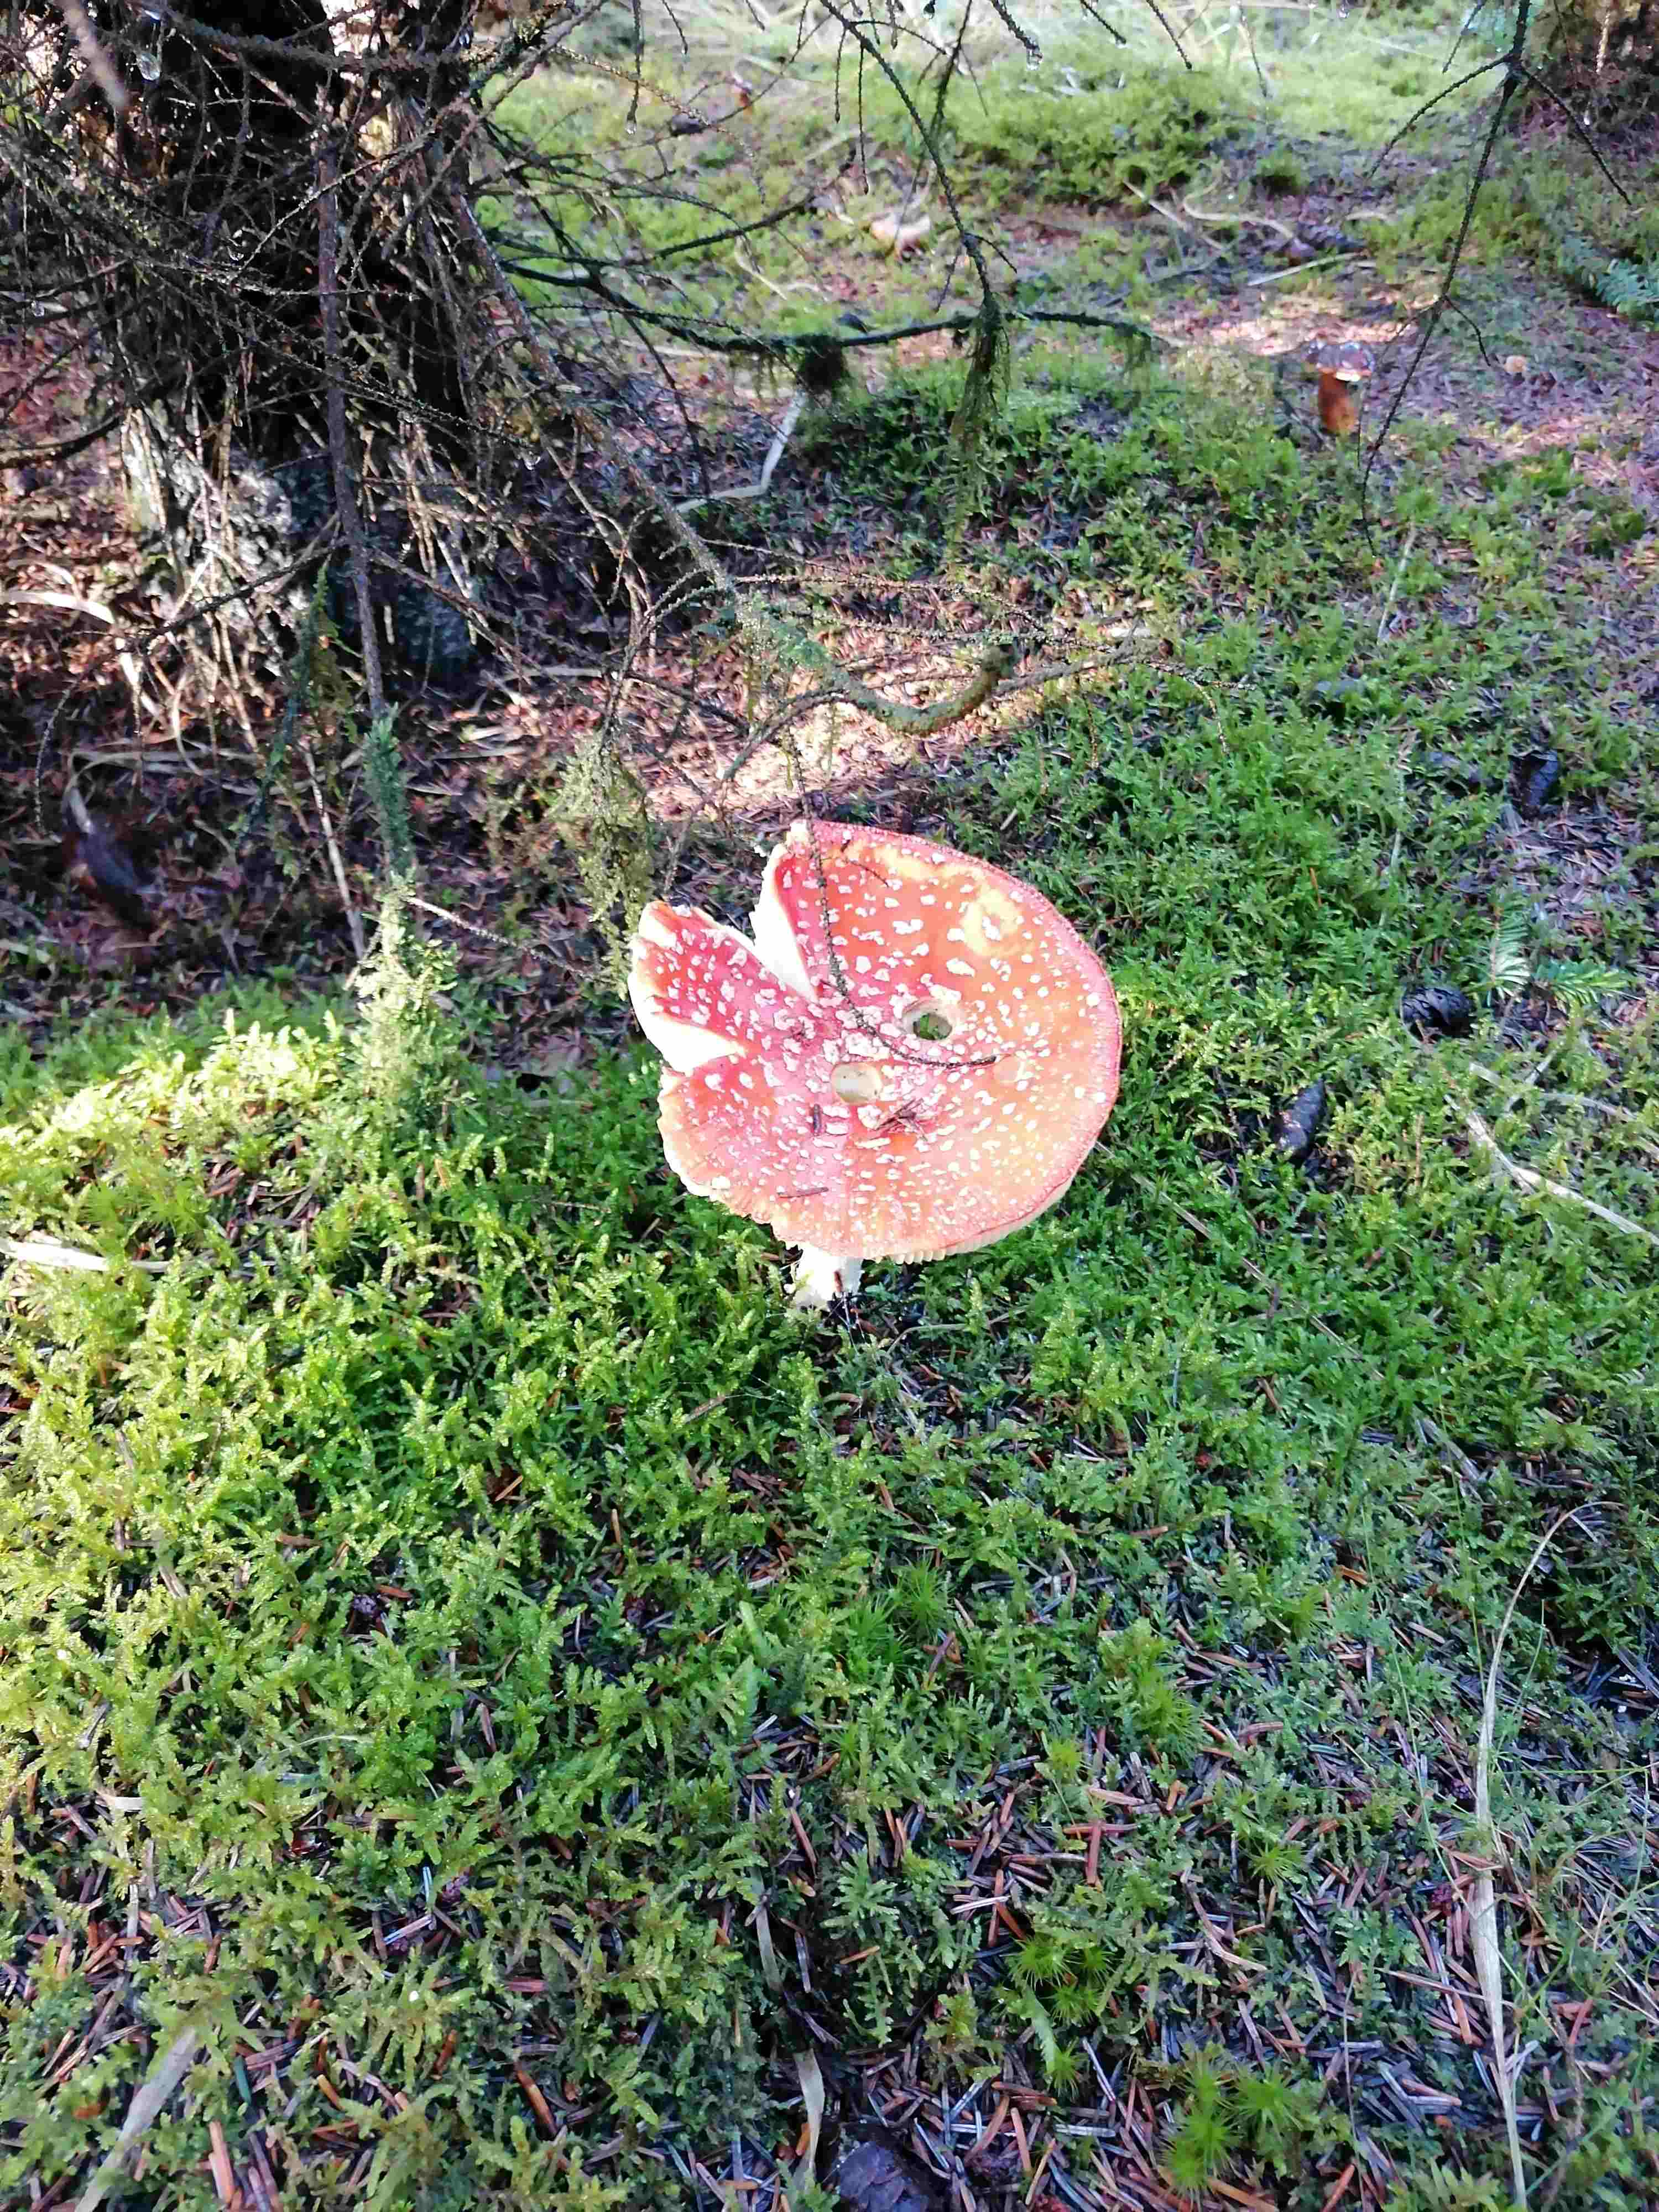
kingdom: Fungi
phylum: Basidiomycota
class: Agaricomycetes
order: Agaricales
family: Amanitaceae
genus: Amanita
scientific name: Amanita muscaria
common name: rød fluesvamp
